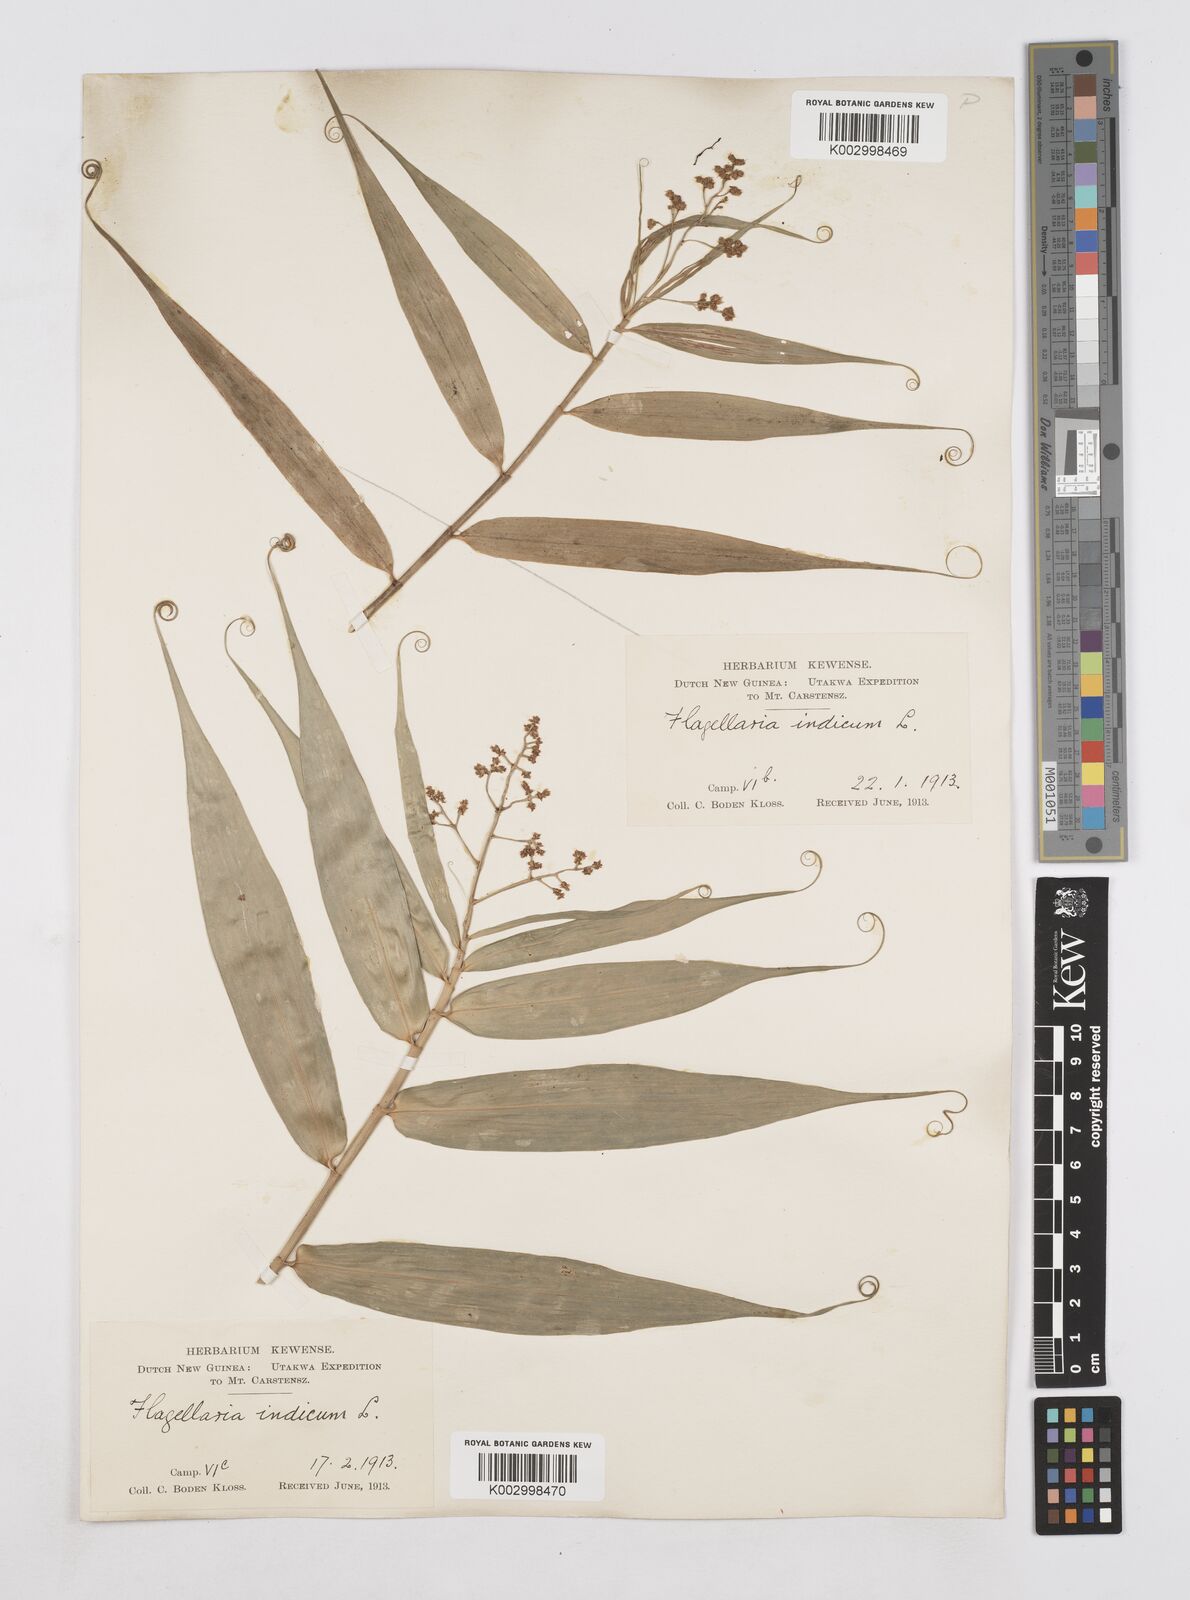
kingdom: Plantae
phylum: Tracheophyta
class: Liliopsida
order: Poales
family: Flagellariaceae
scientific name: Flagellariaceae
